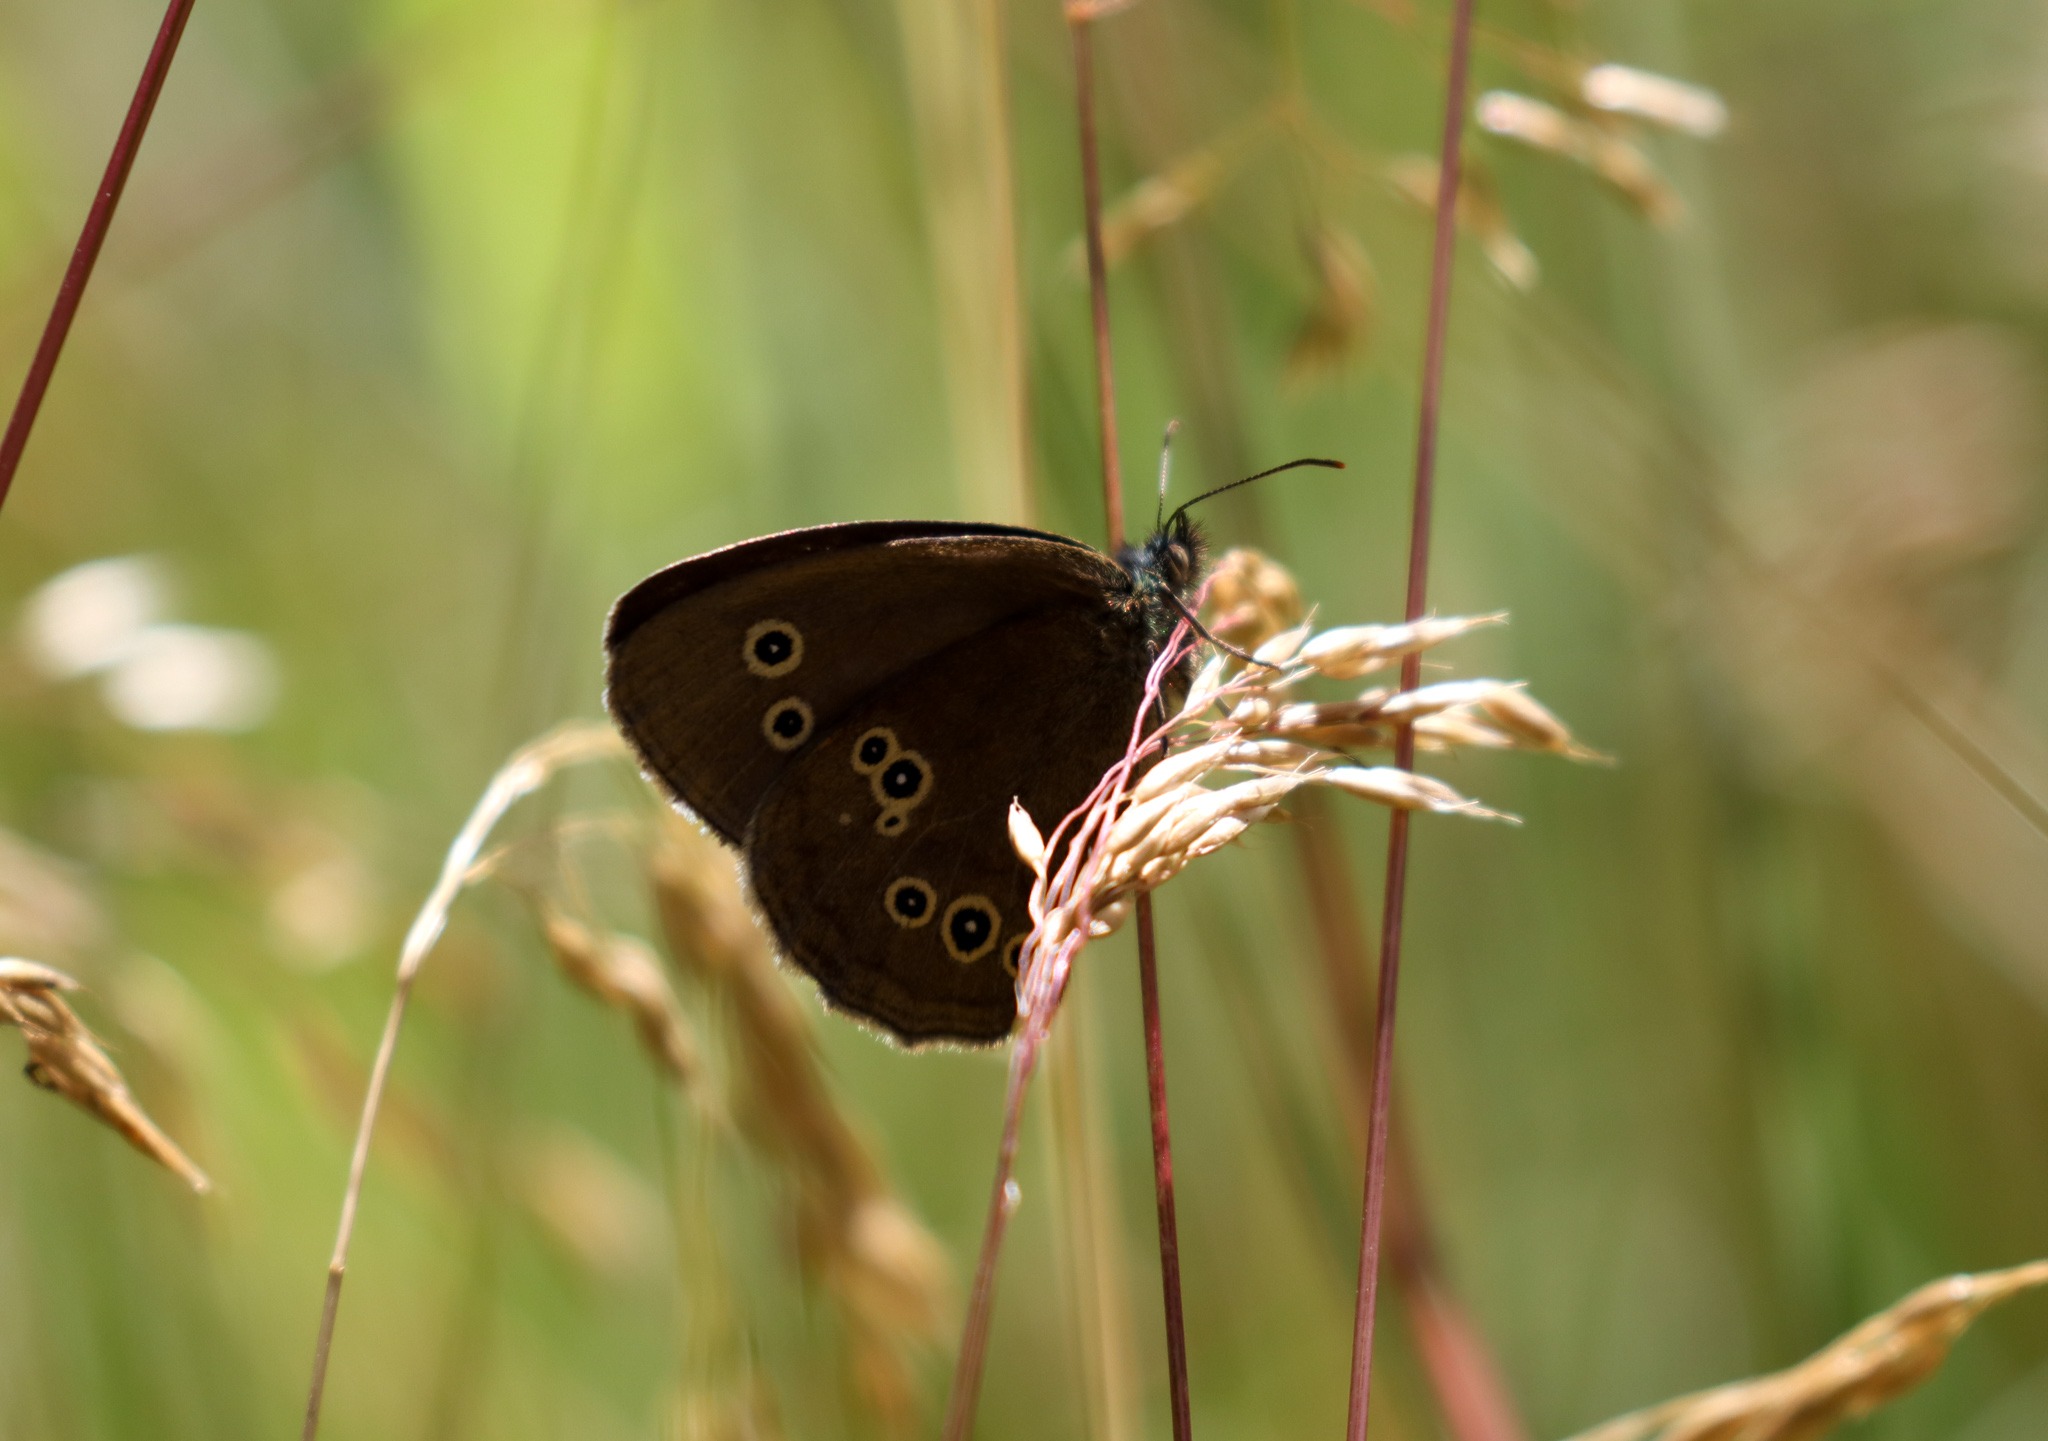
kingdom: Animalia
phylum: Arthropoda
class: Insecta
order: Lepidoptera
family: Nymphalidae
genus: Aphantopus
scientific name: Aphantopus hyperantus
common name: Engrandøje
